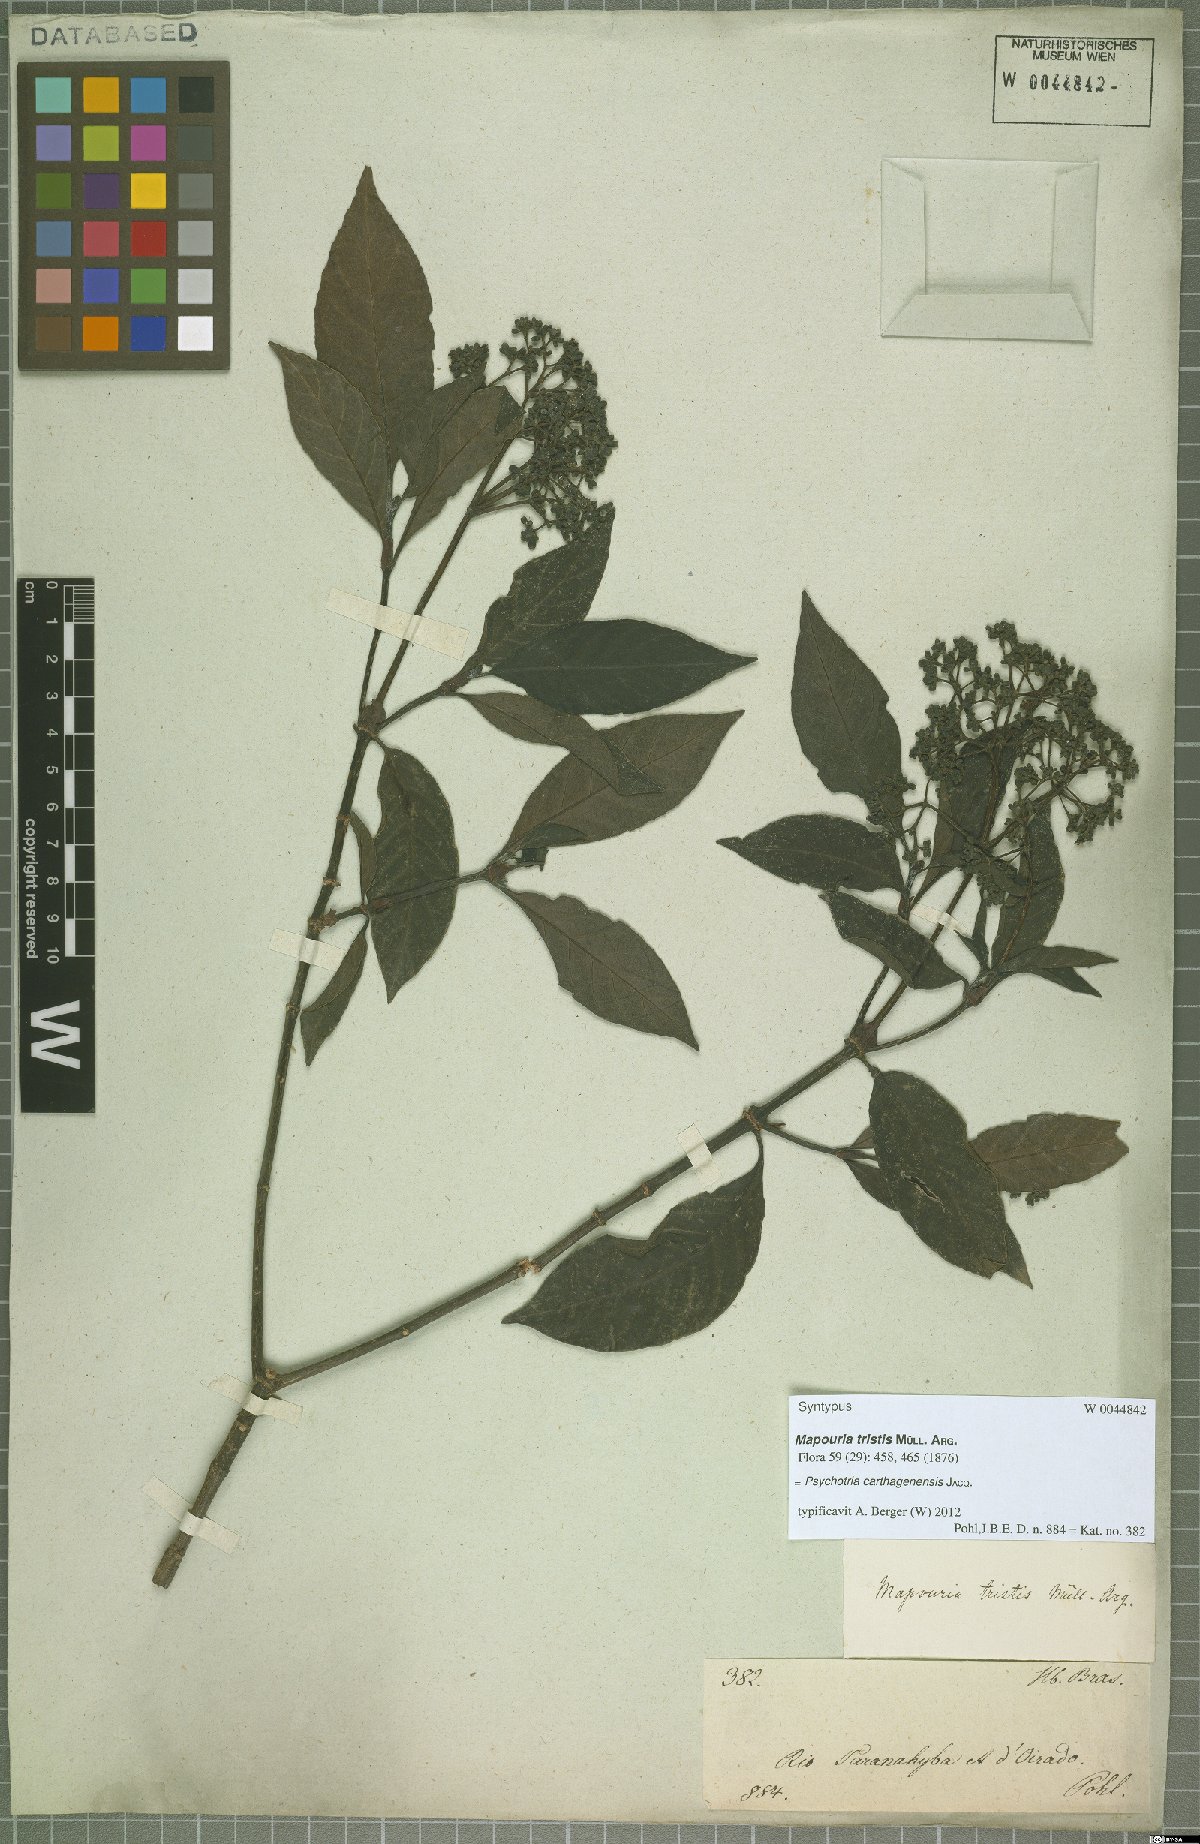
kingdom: Plantae
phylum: Tracheophyta
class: Magnoliopsida
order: Gentianales
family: Rubiaceae
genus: Psychotria
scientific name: Psychotria carthagenensis
